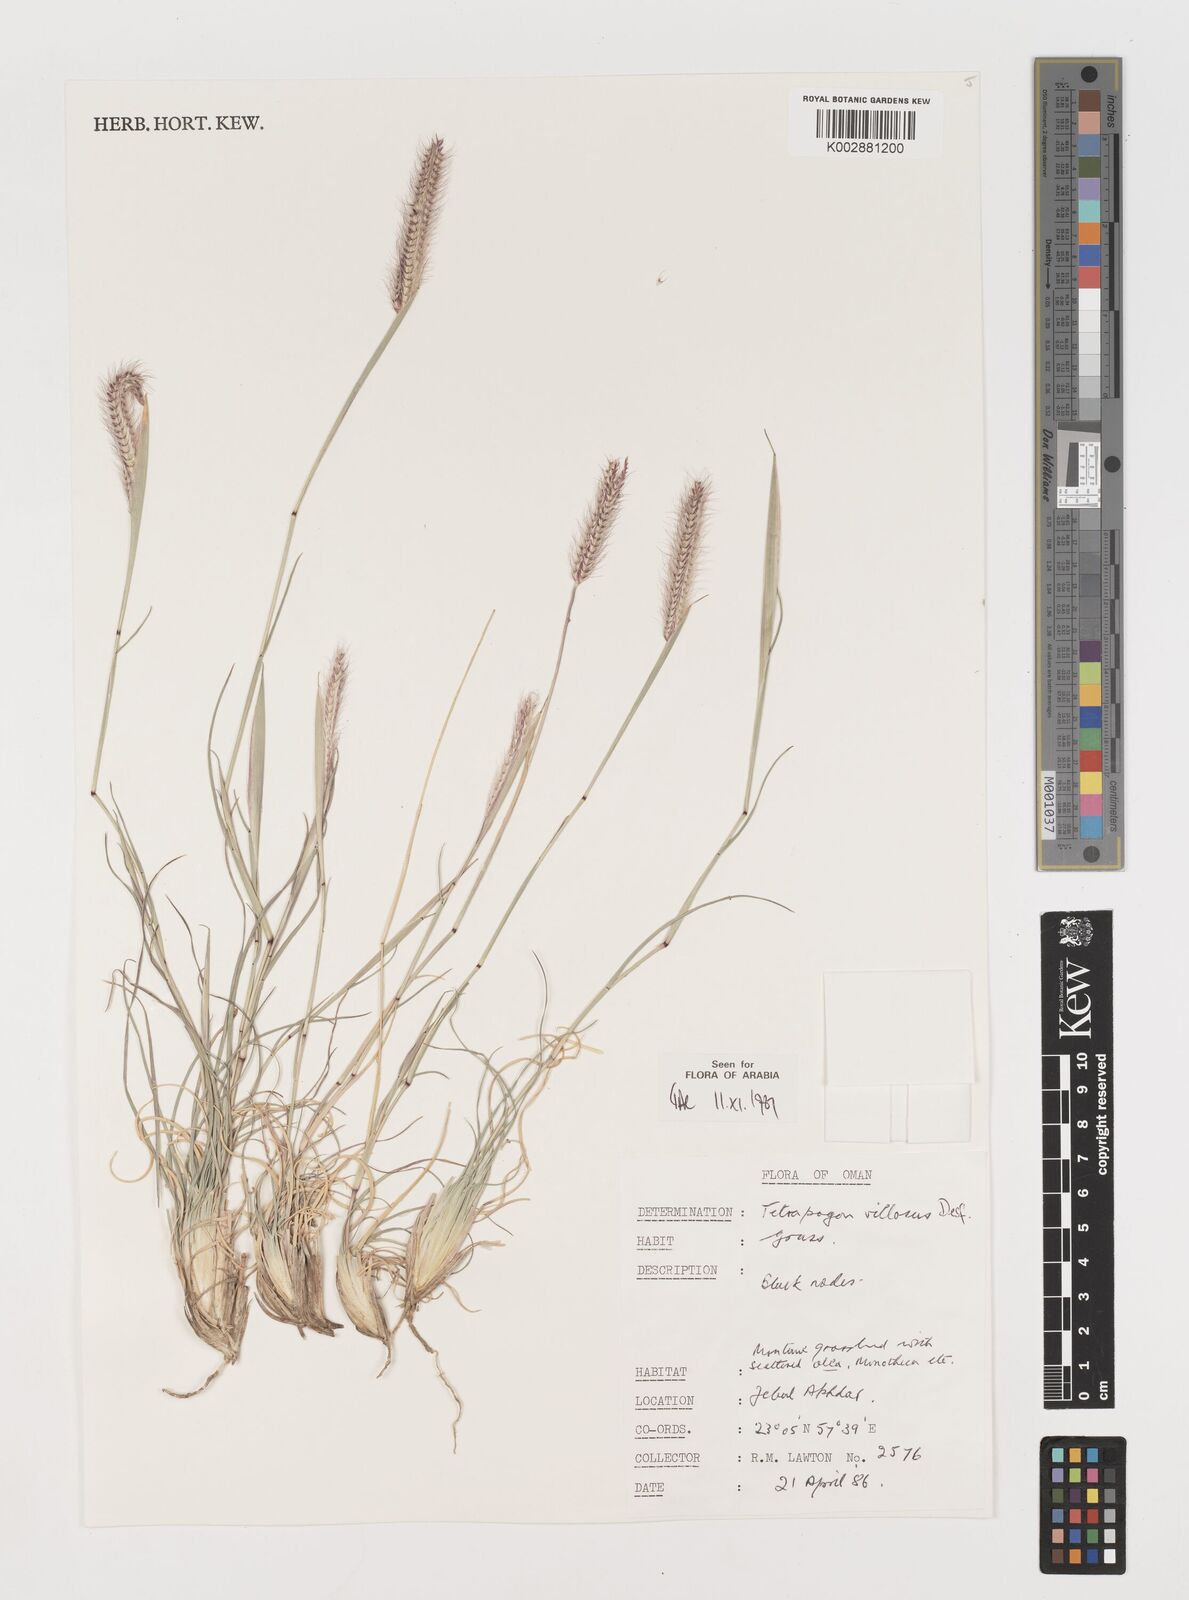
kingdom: Plantae
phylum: Tracheophyta
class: Liliopsida
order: Poales
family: Poaceae
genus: Tetrapogon
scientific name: Tetrapogon villosus
